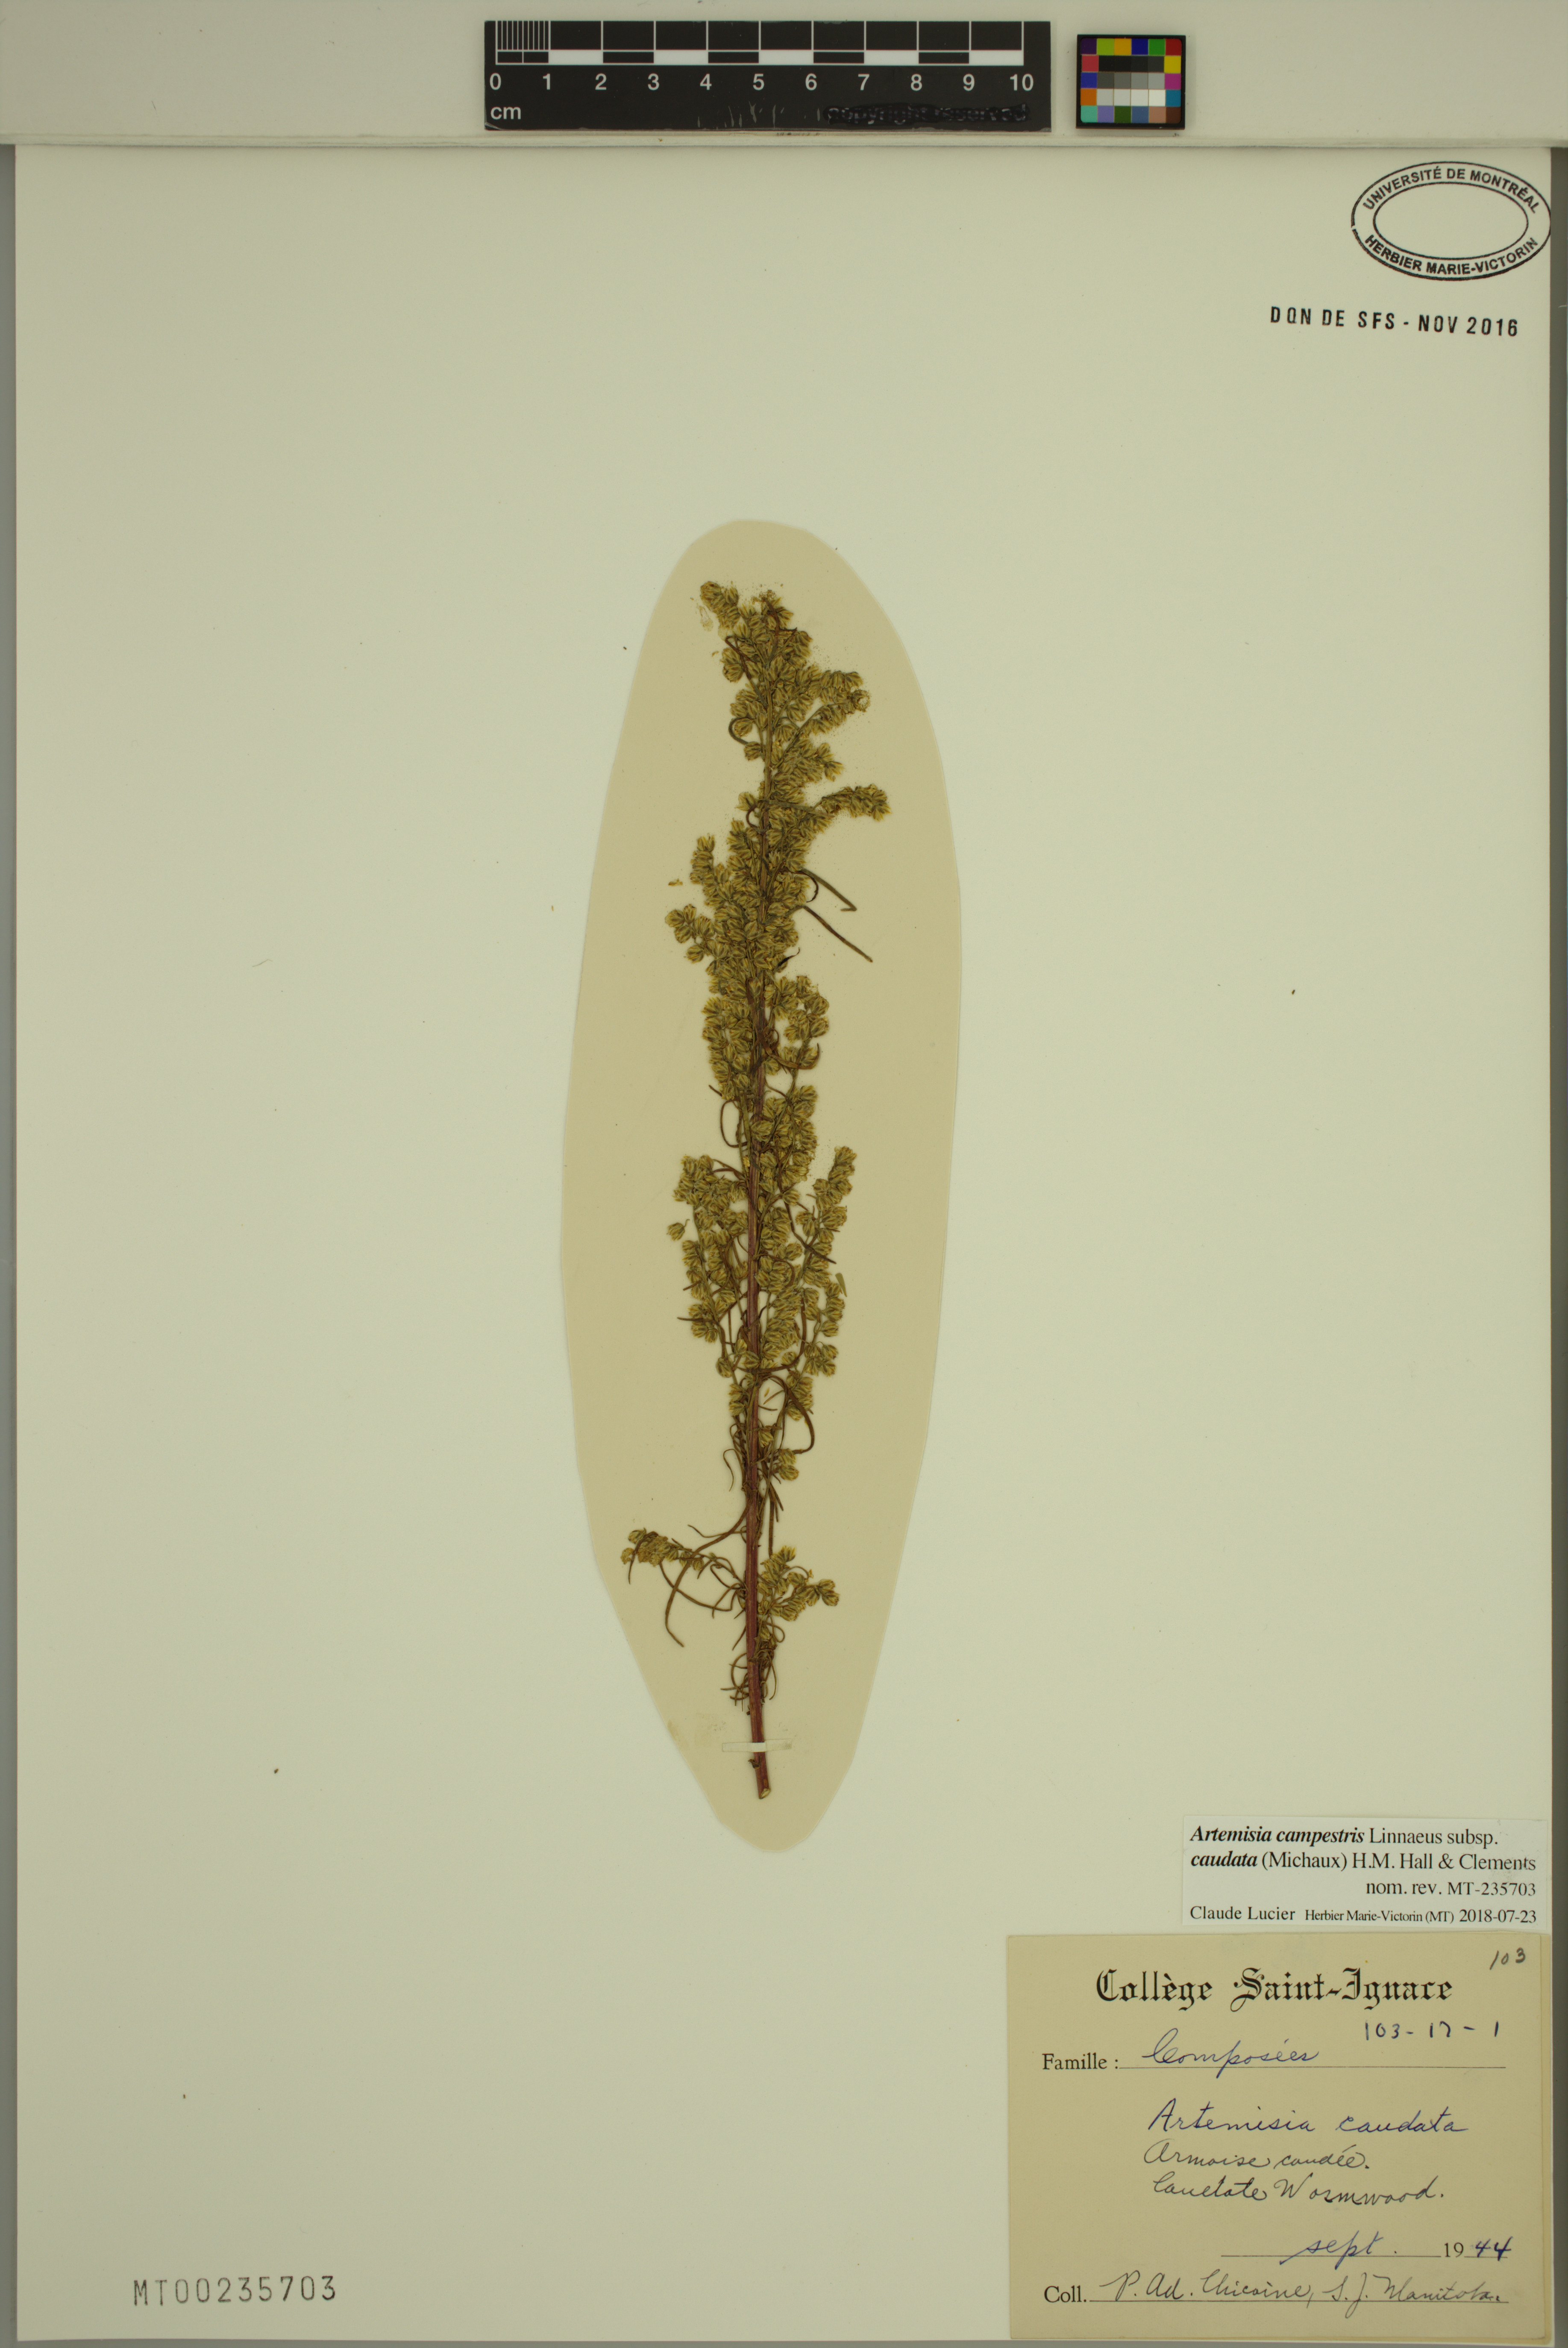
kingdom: Plantae
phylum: Tracheophyta
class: Magnoliopsida
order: Asterales
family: Asteraceae
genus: Artemisia
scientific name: Artemisia campestris
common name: Field wormwood
